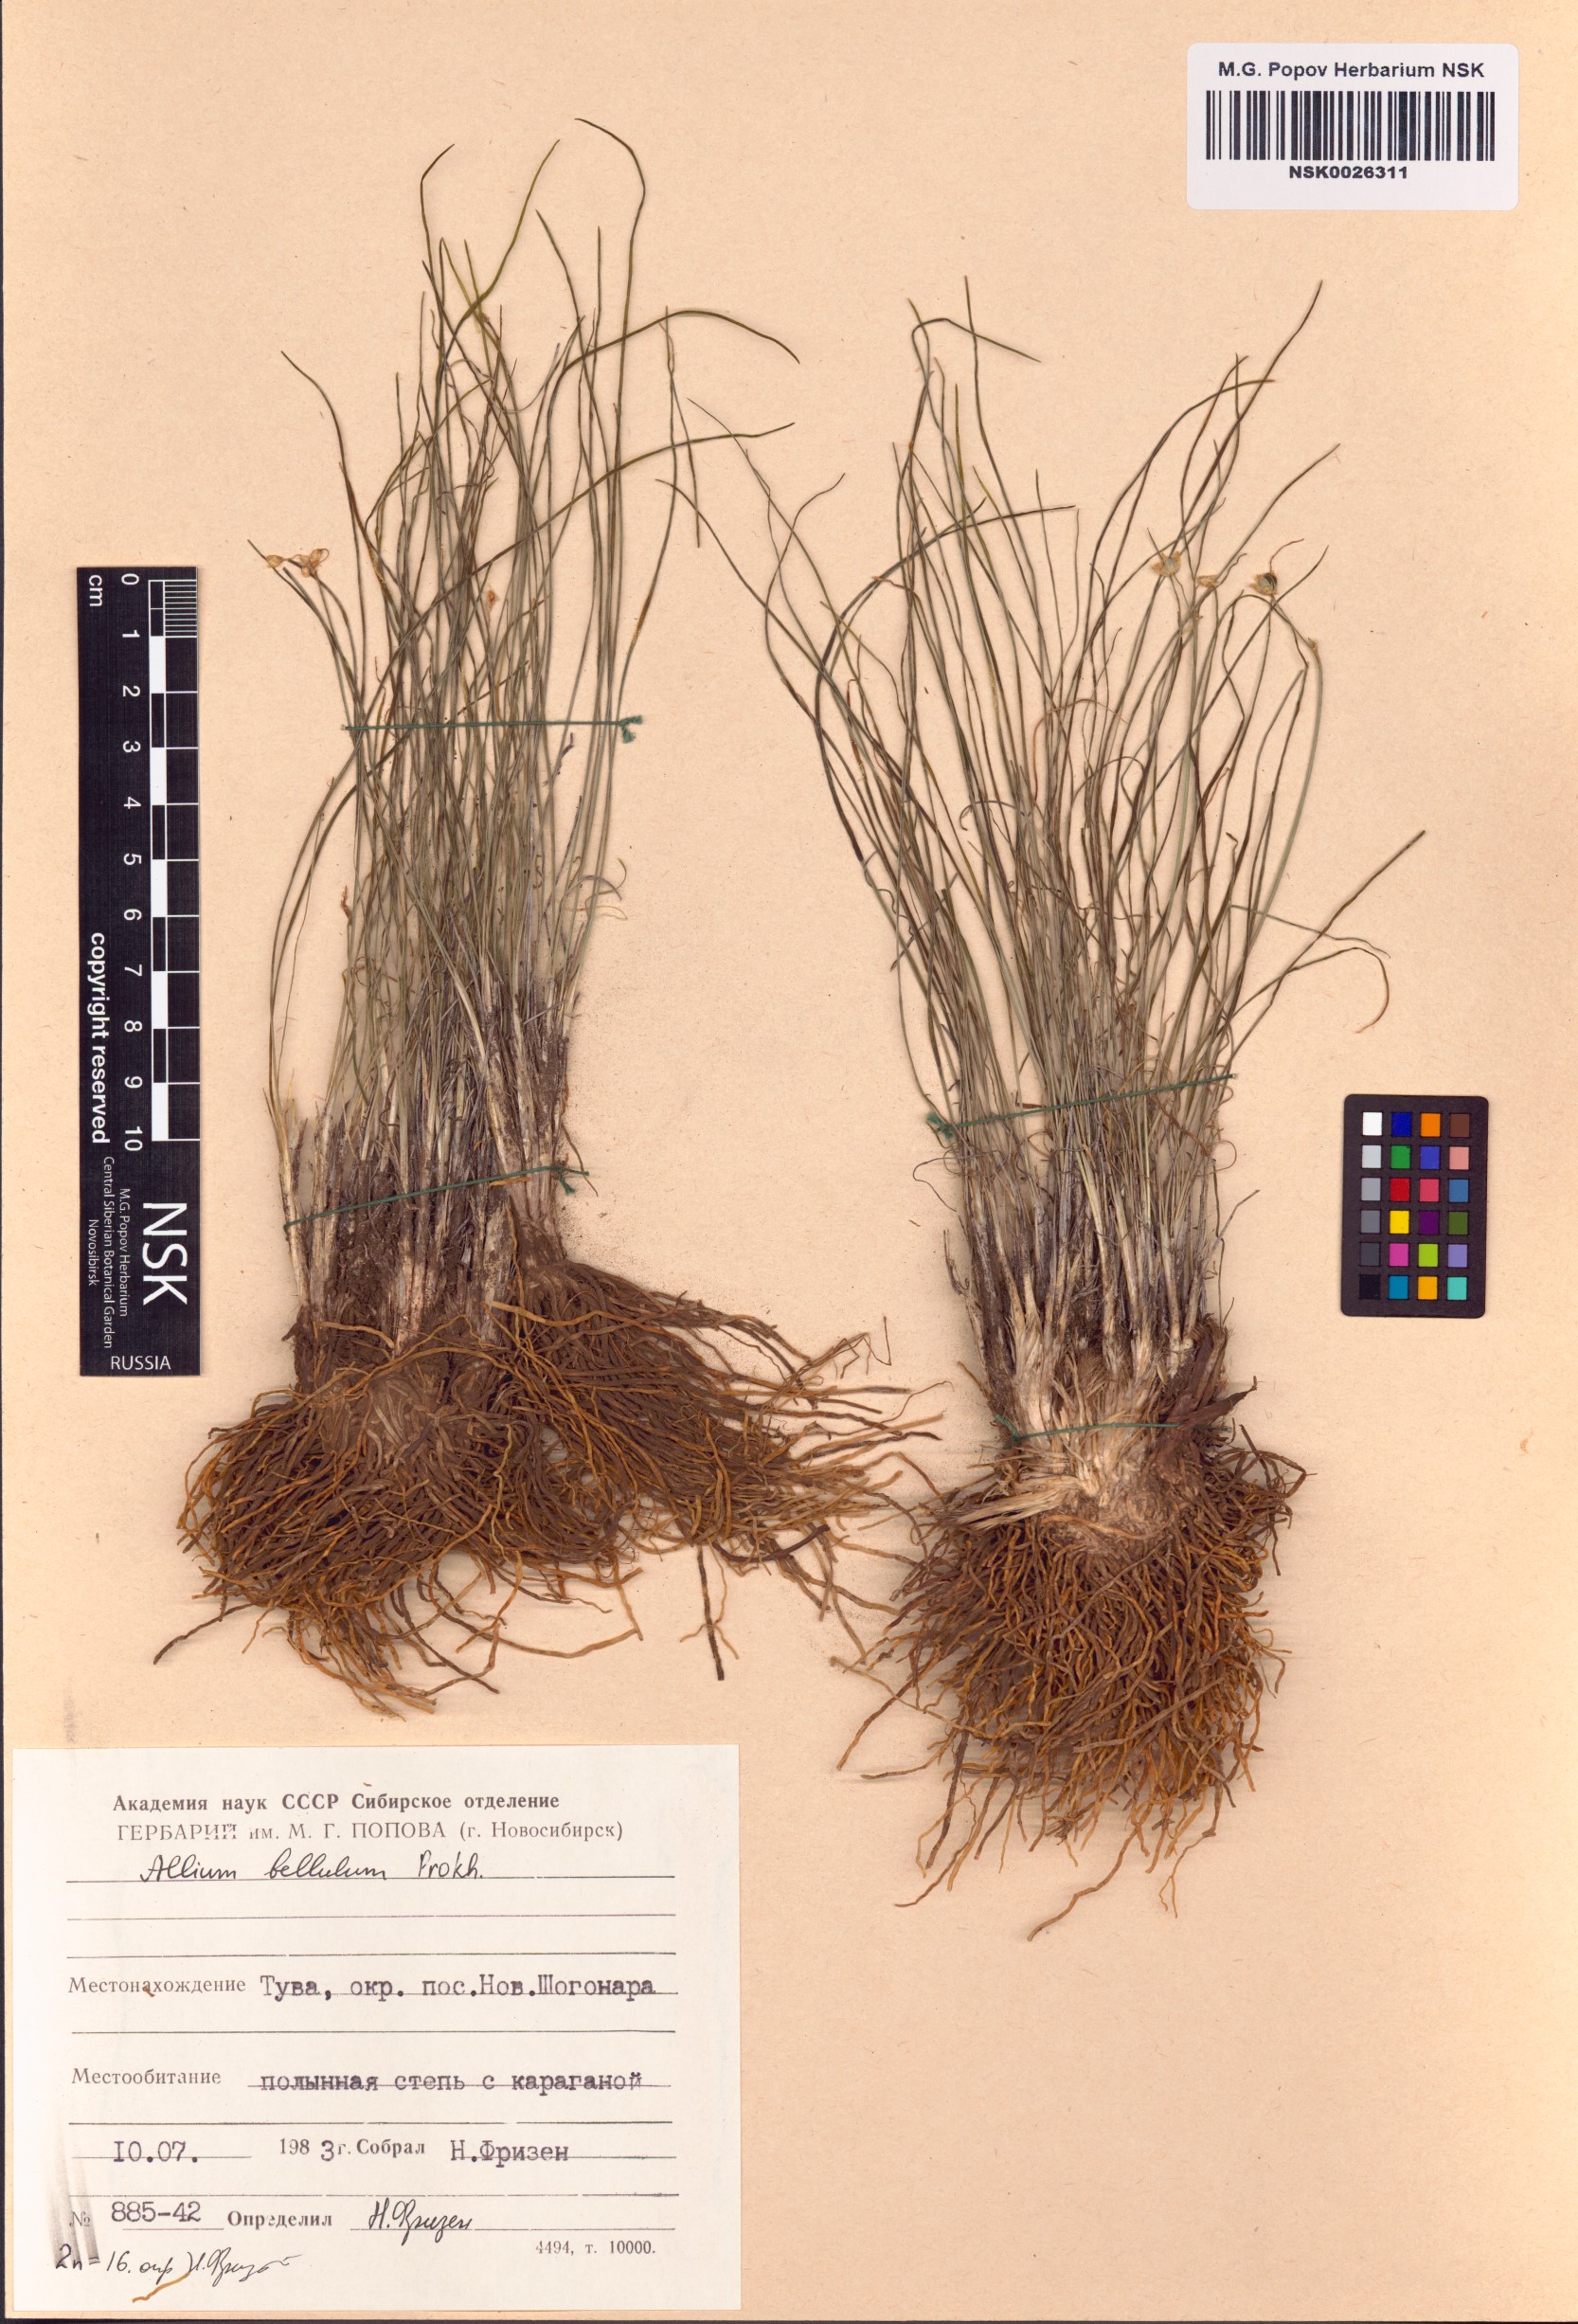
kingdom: Plantae
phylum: Tracheophyta
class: Liliopsida
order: Asparagales
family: Amaryllidaceae
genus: Allium
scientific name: Allium bellulum
